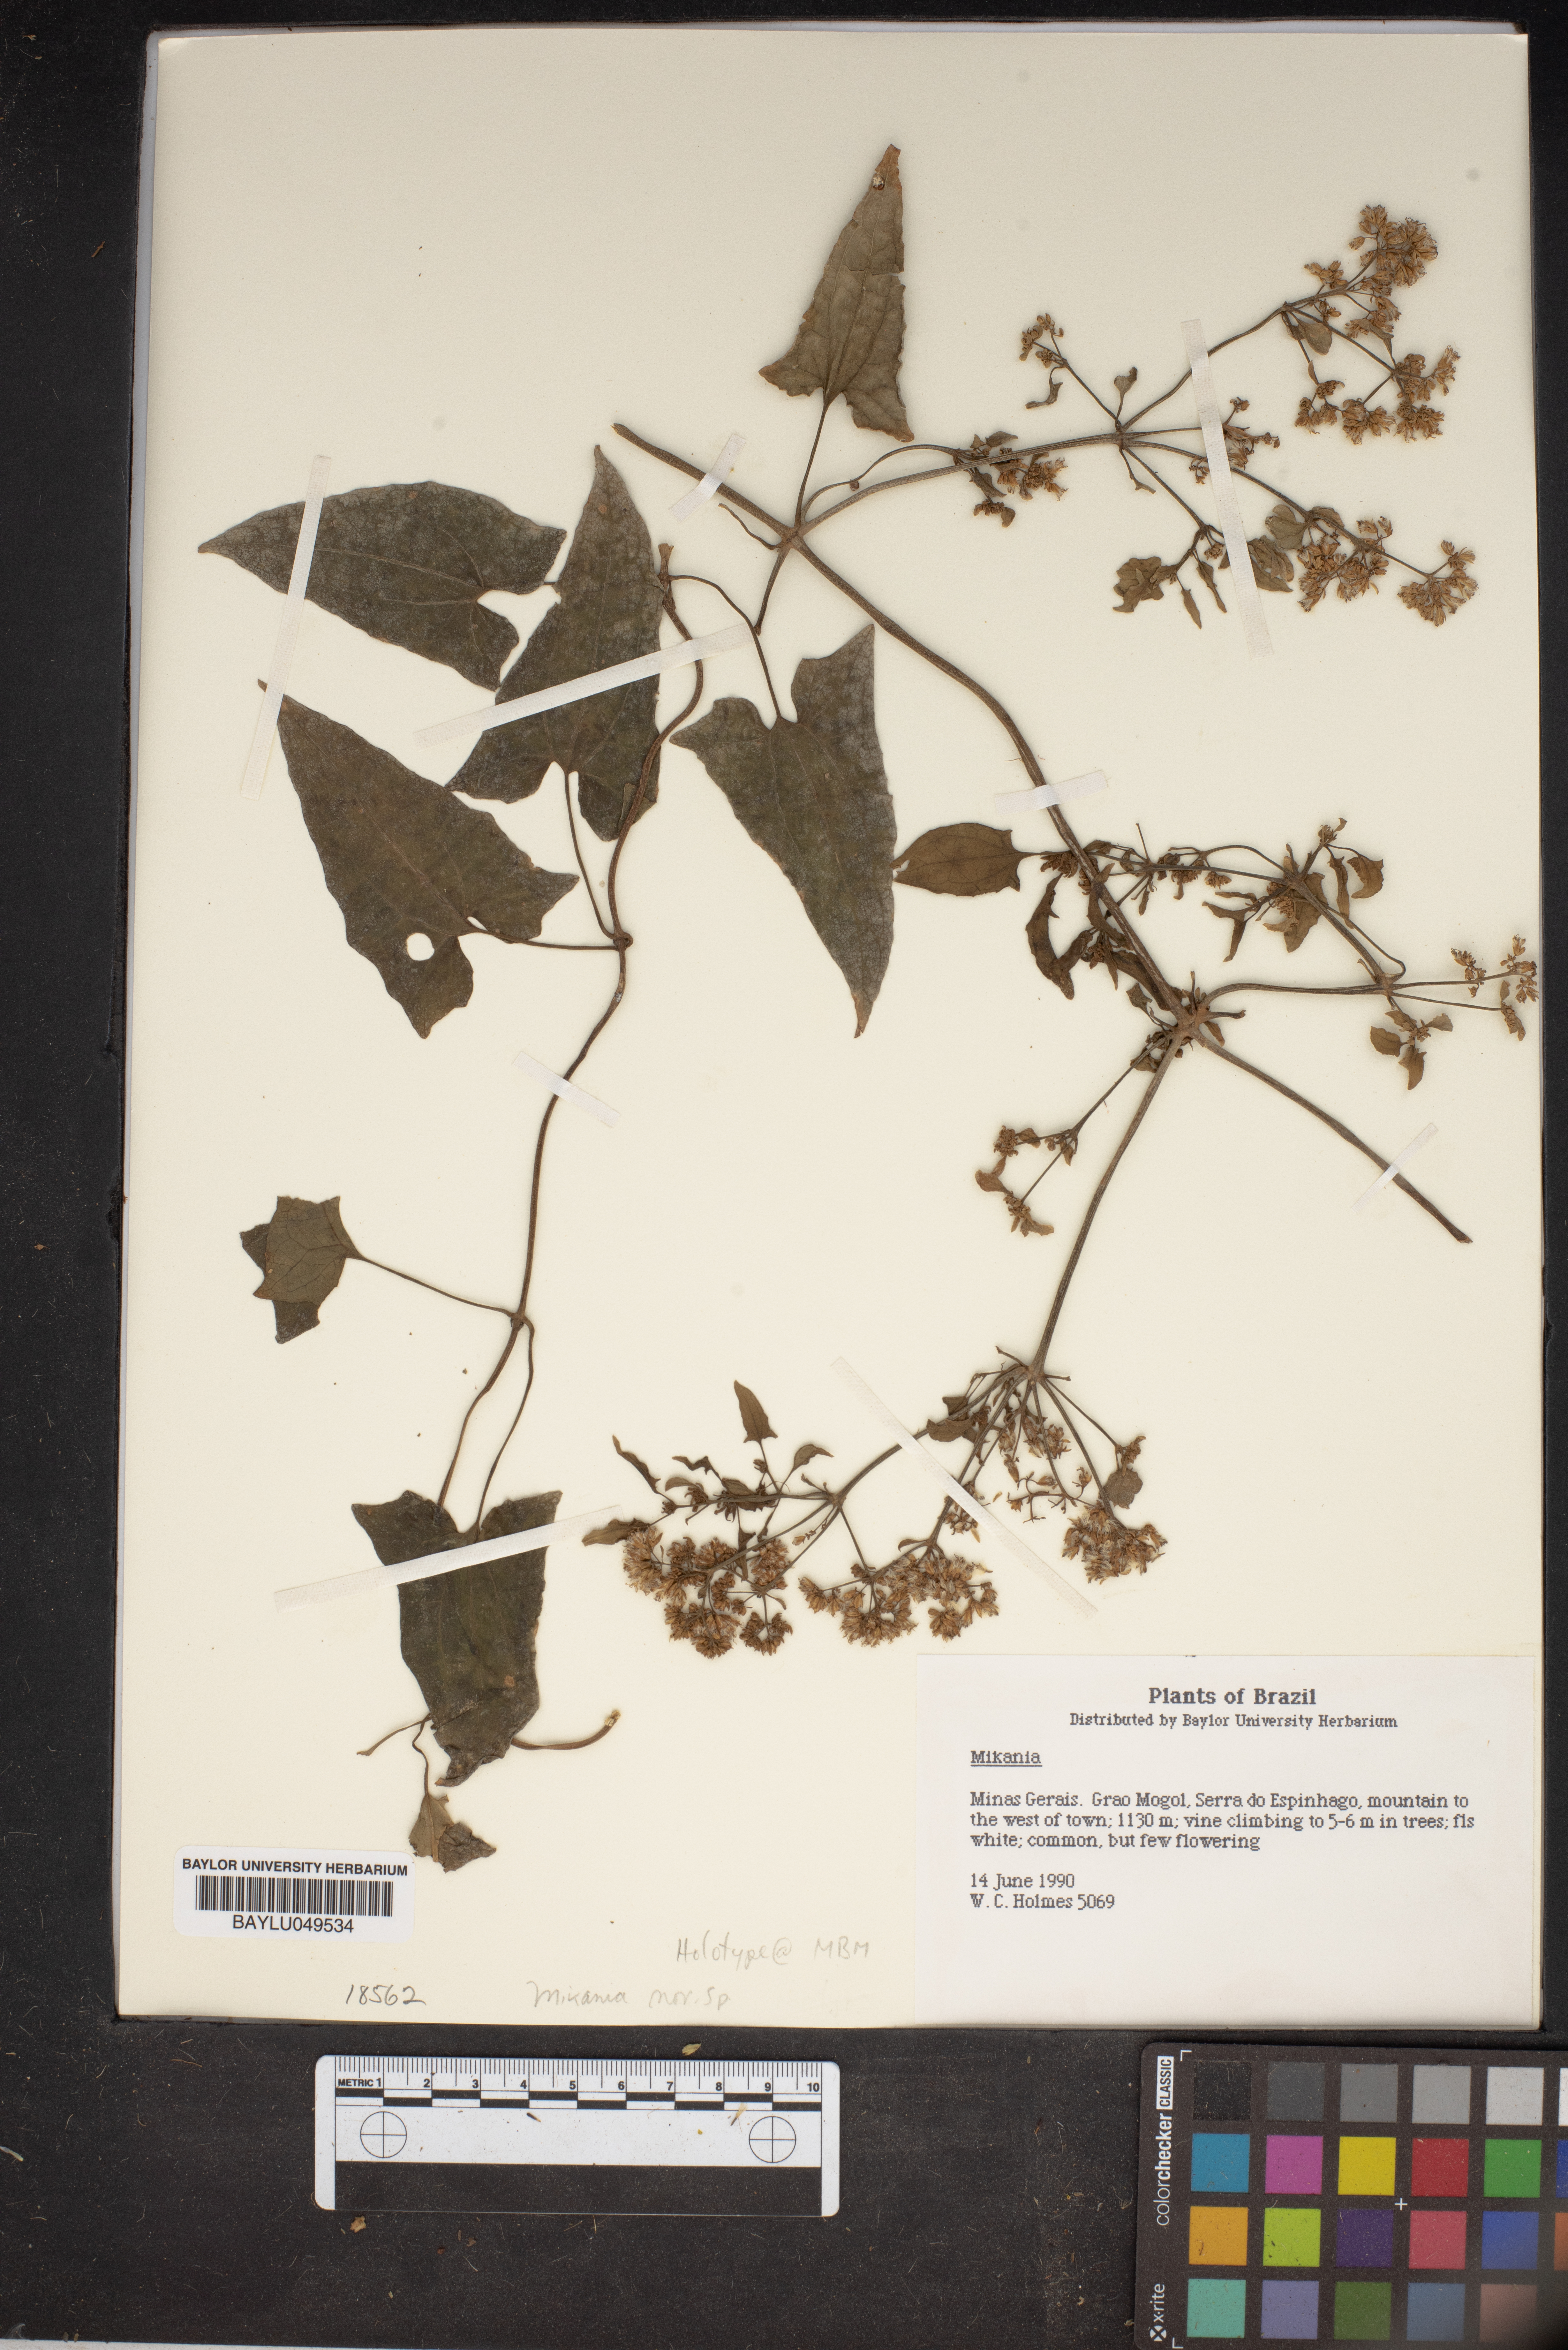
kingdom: Plantae
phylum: Tracheophyta
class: Magnoliopsida
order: Asterales
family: Asteraceae
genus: Mikania
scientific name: Mikania
